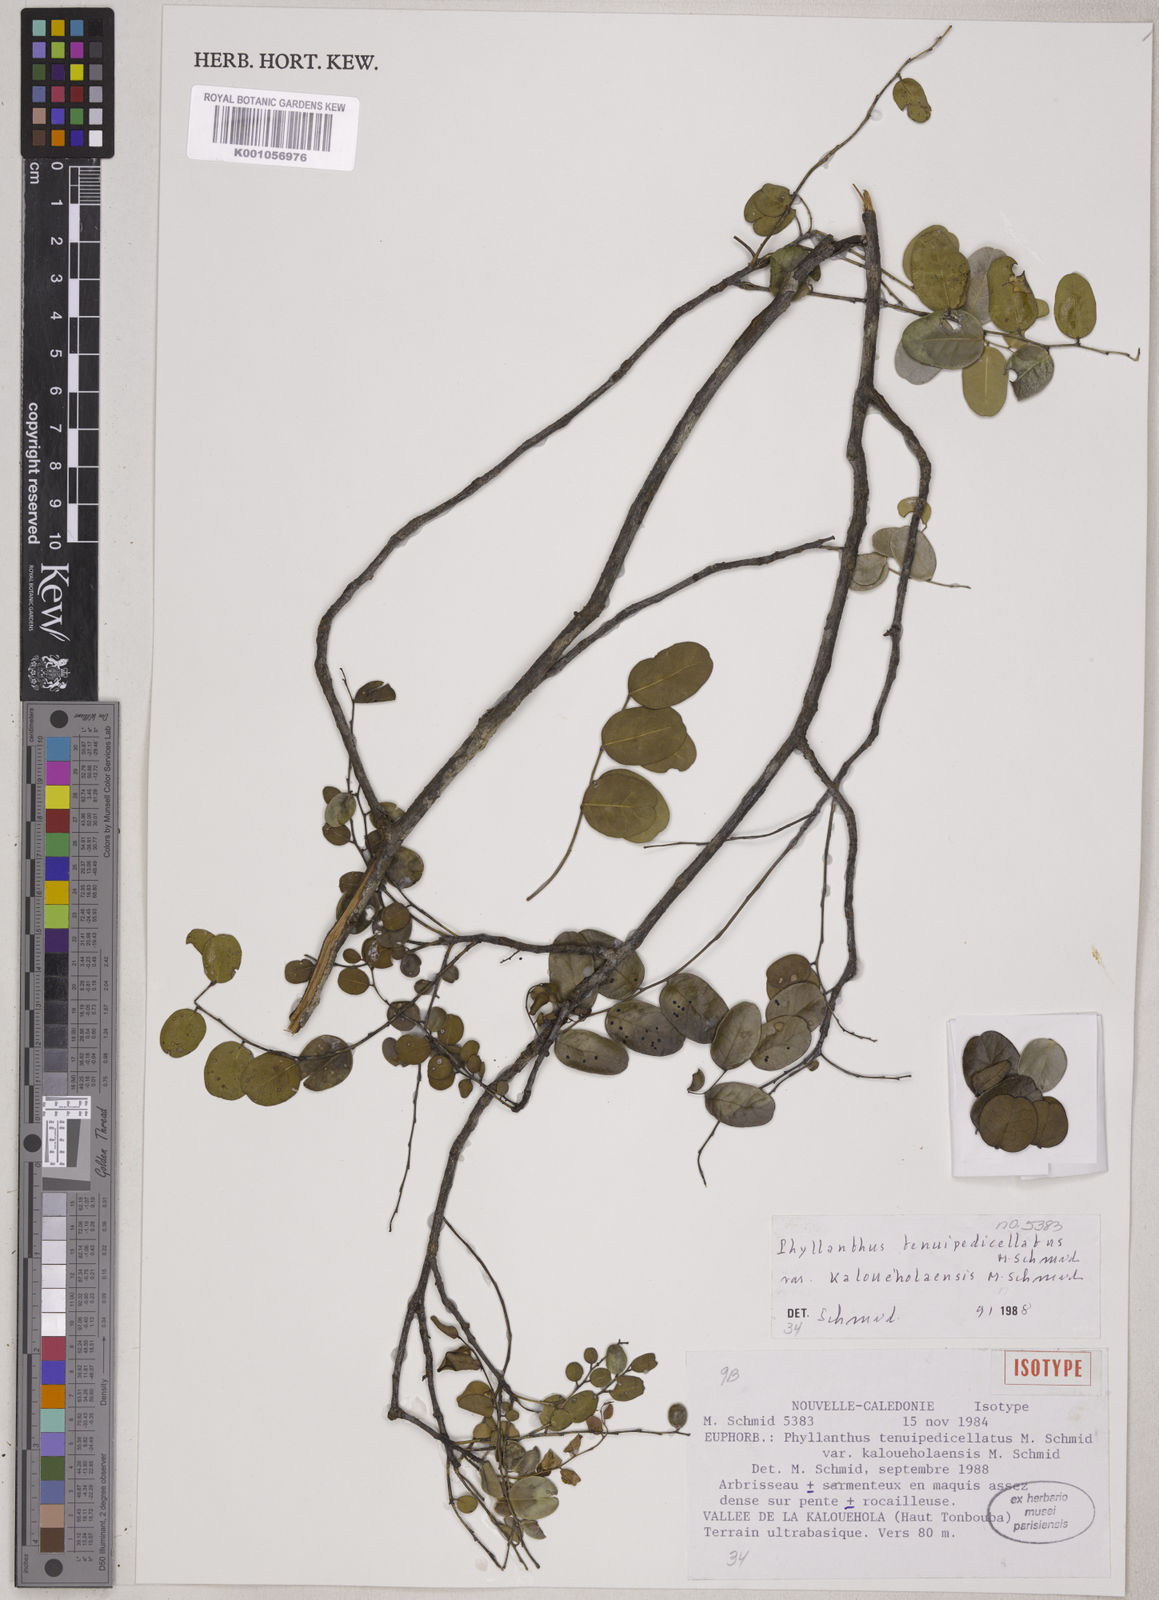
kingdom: Plantae
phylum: Tracheophyta
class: Magnoliopsida
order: Malpighiales
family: Phyllanthaceae
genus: Phyllanthus
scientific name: Phyllanthus tenuipedicellatus
